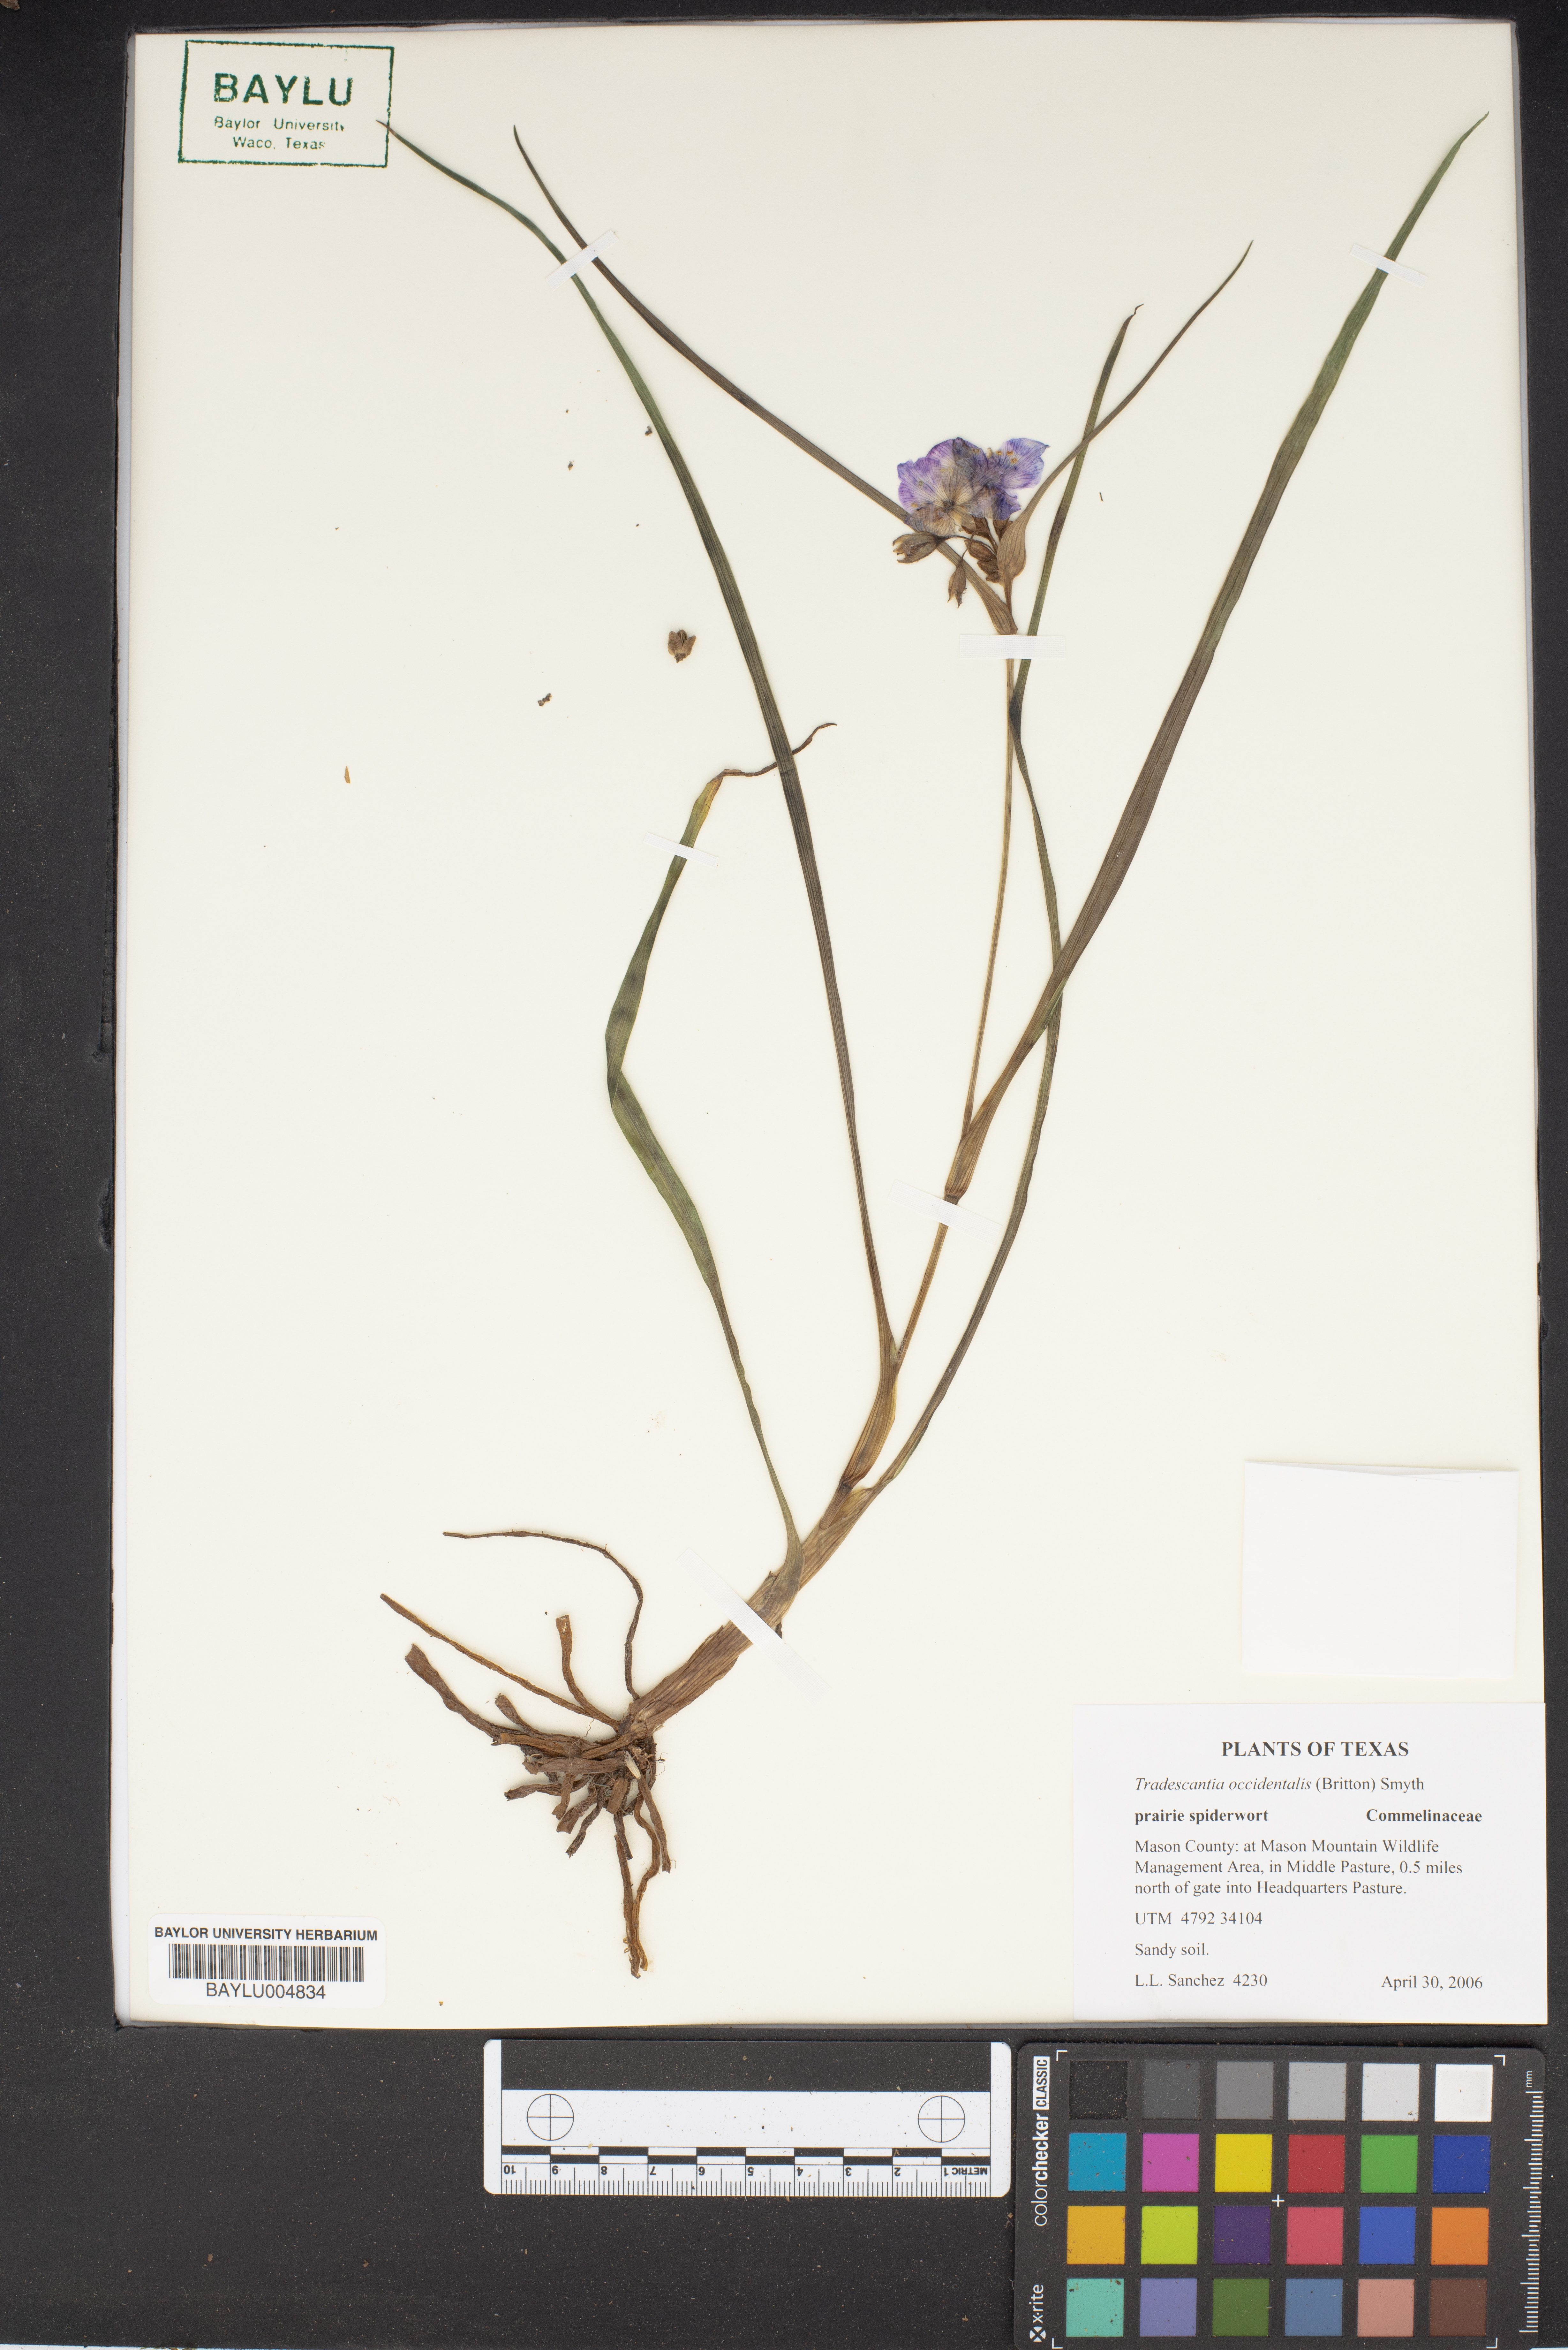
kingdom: Plantae
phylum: Tracheophyta
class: Liliopsida
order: Commelinales
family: Commelinaceae
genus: Tradescantia
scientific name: Tradescantia occidentalis
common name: Prairie spiderwort
